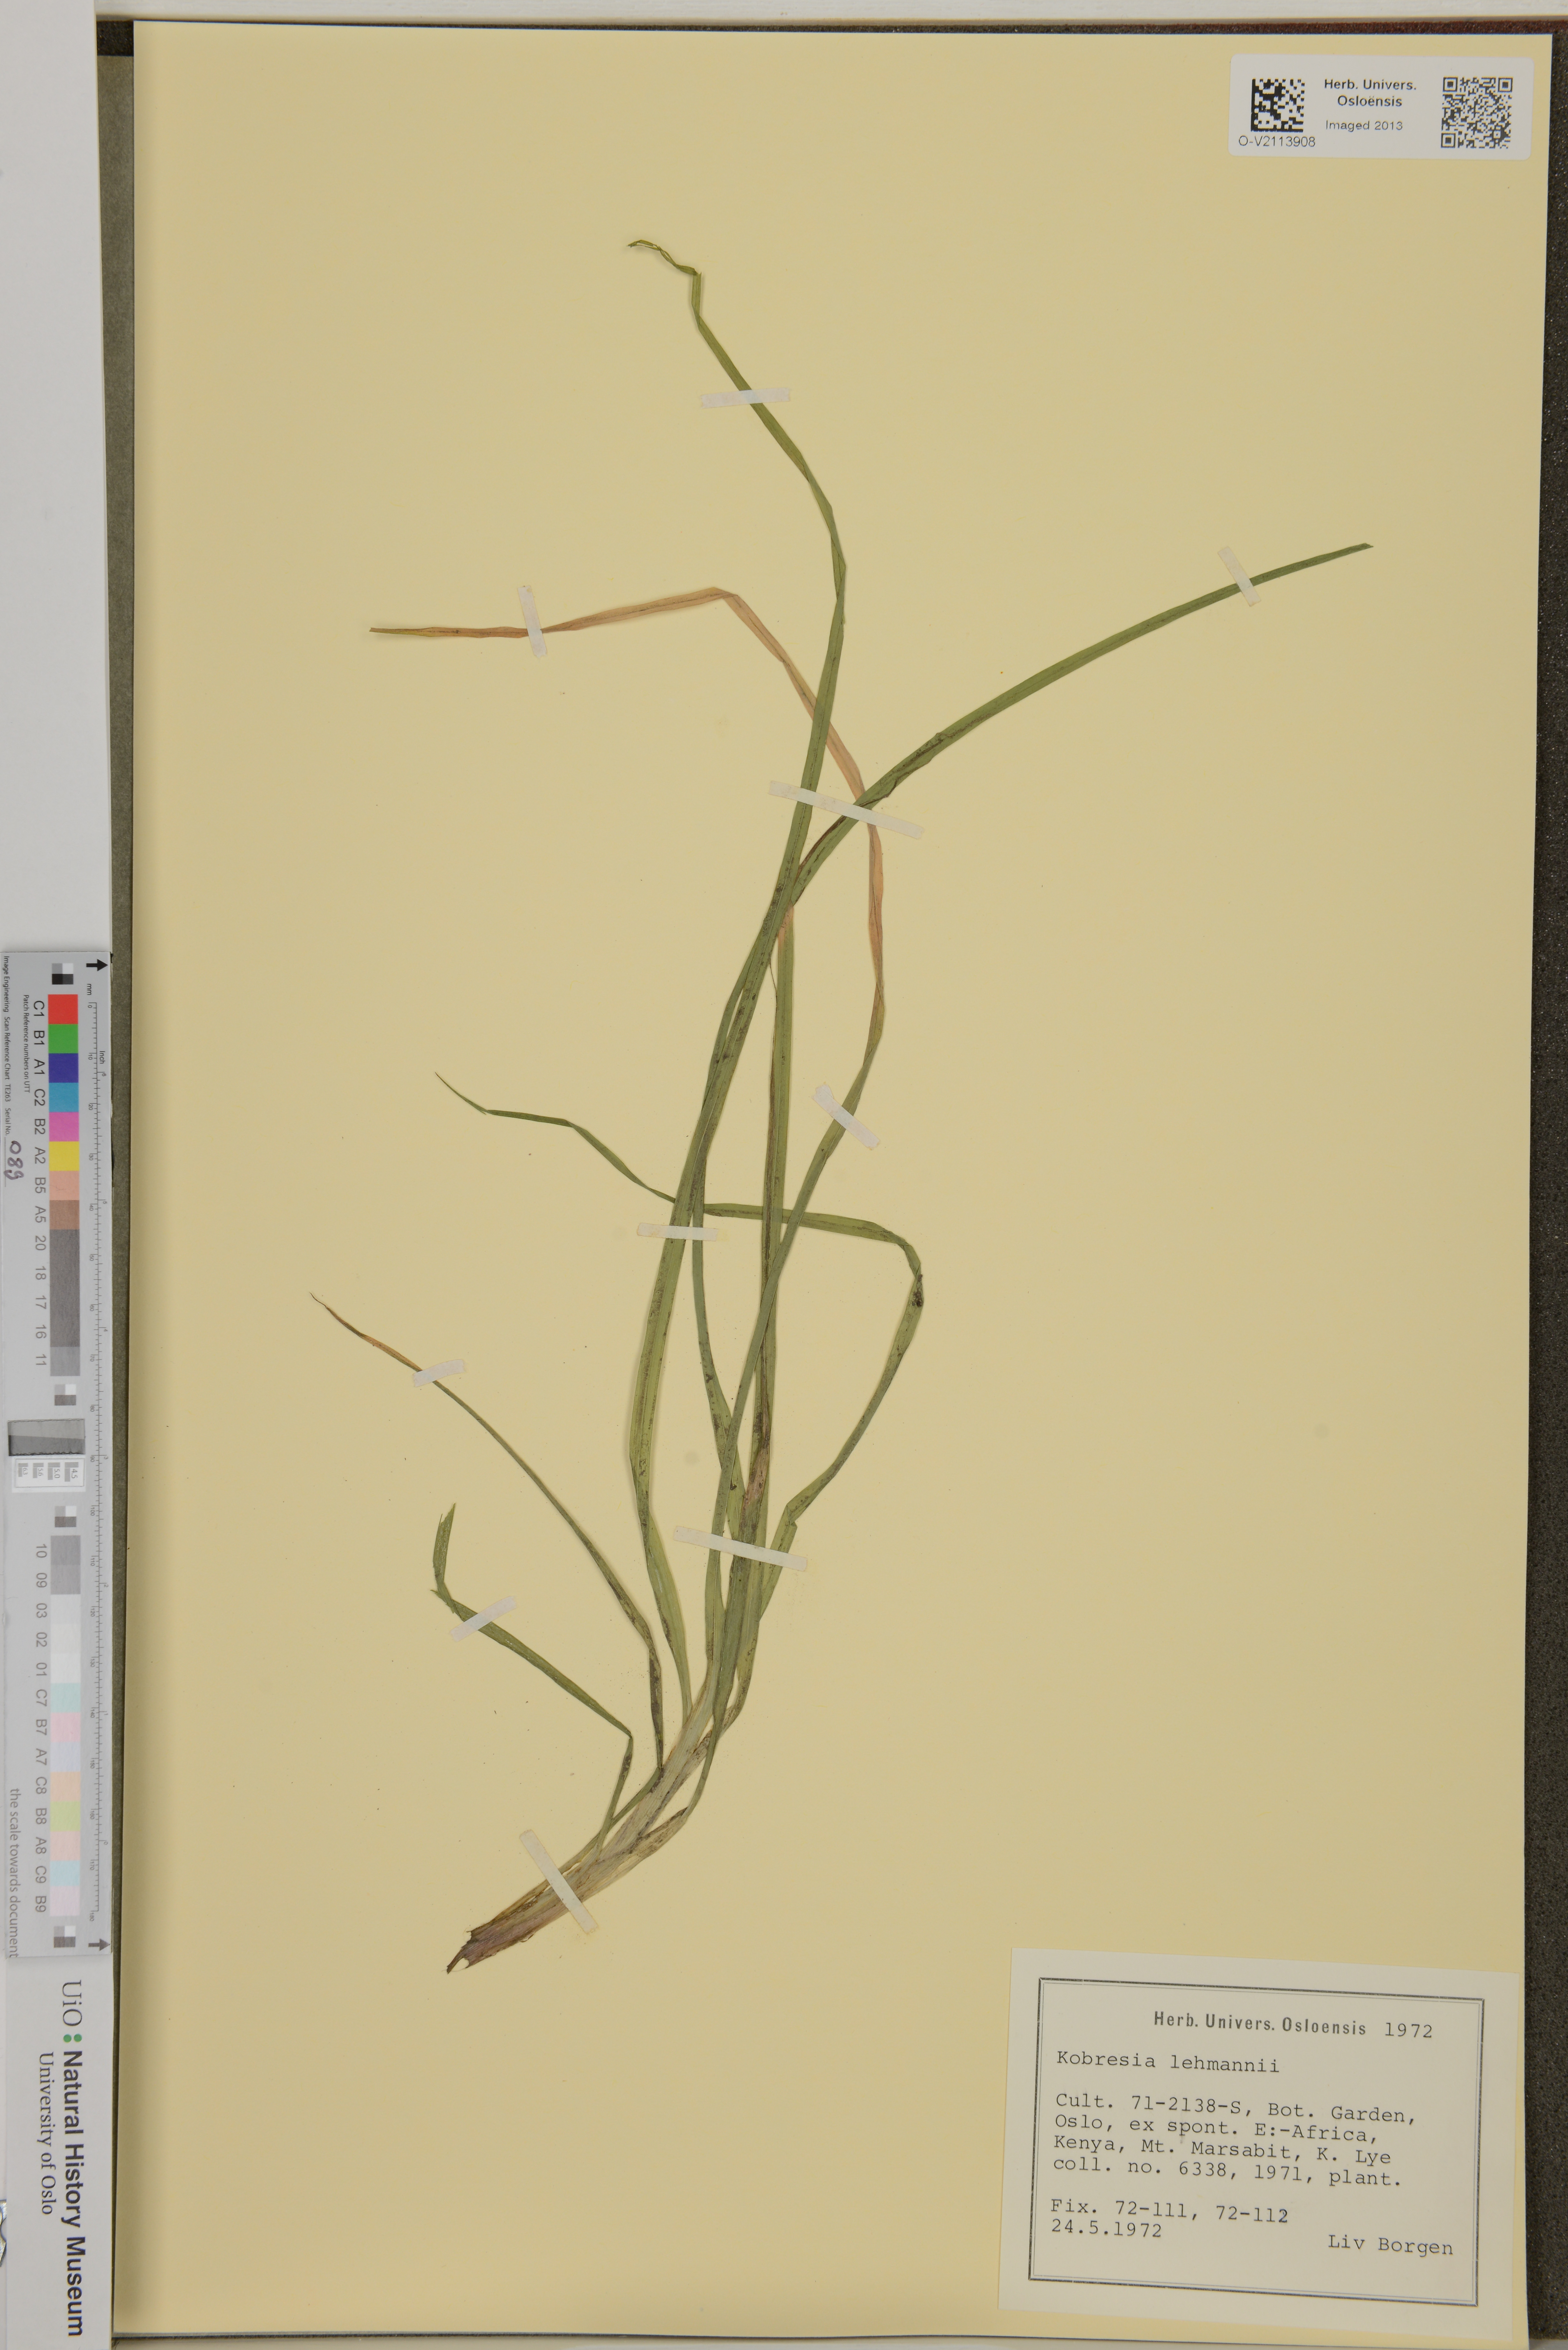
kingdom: Plantae
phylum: Tracheophyta
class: Liliopsida
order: Poales
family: Cyperaceae
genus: Carex
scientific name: Carex uhligii
